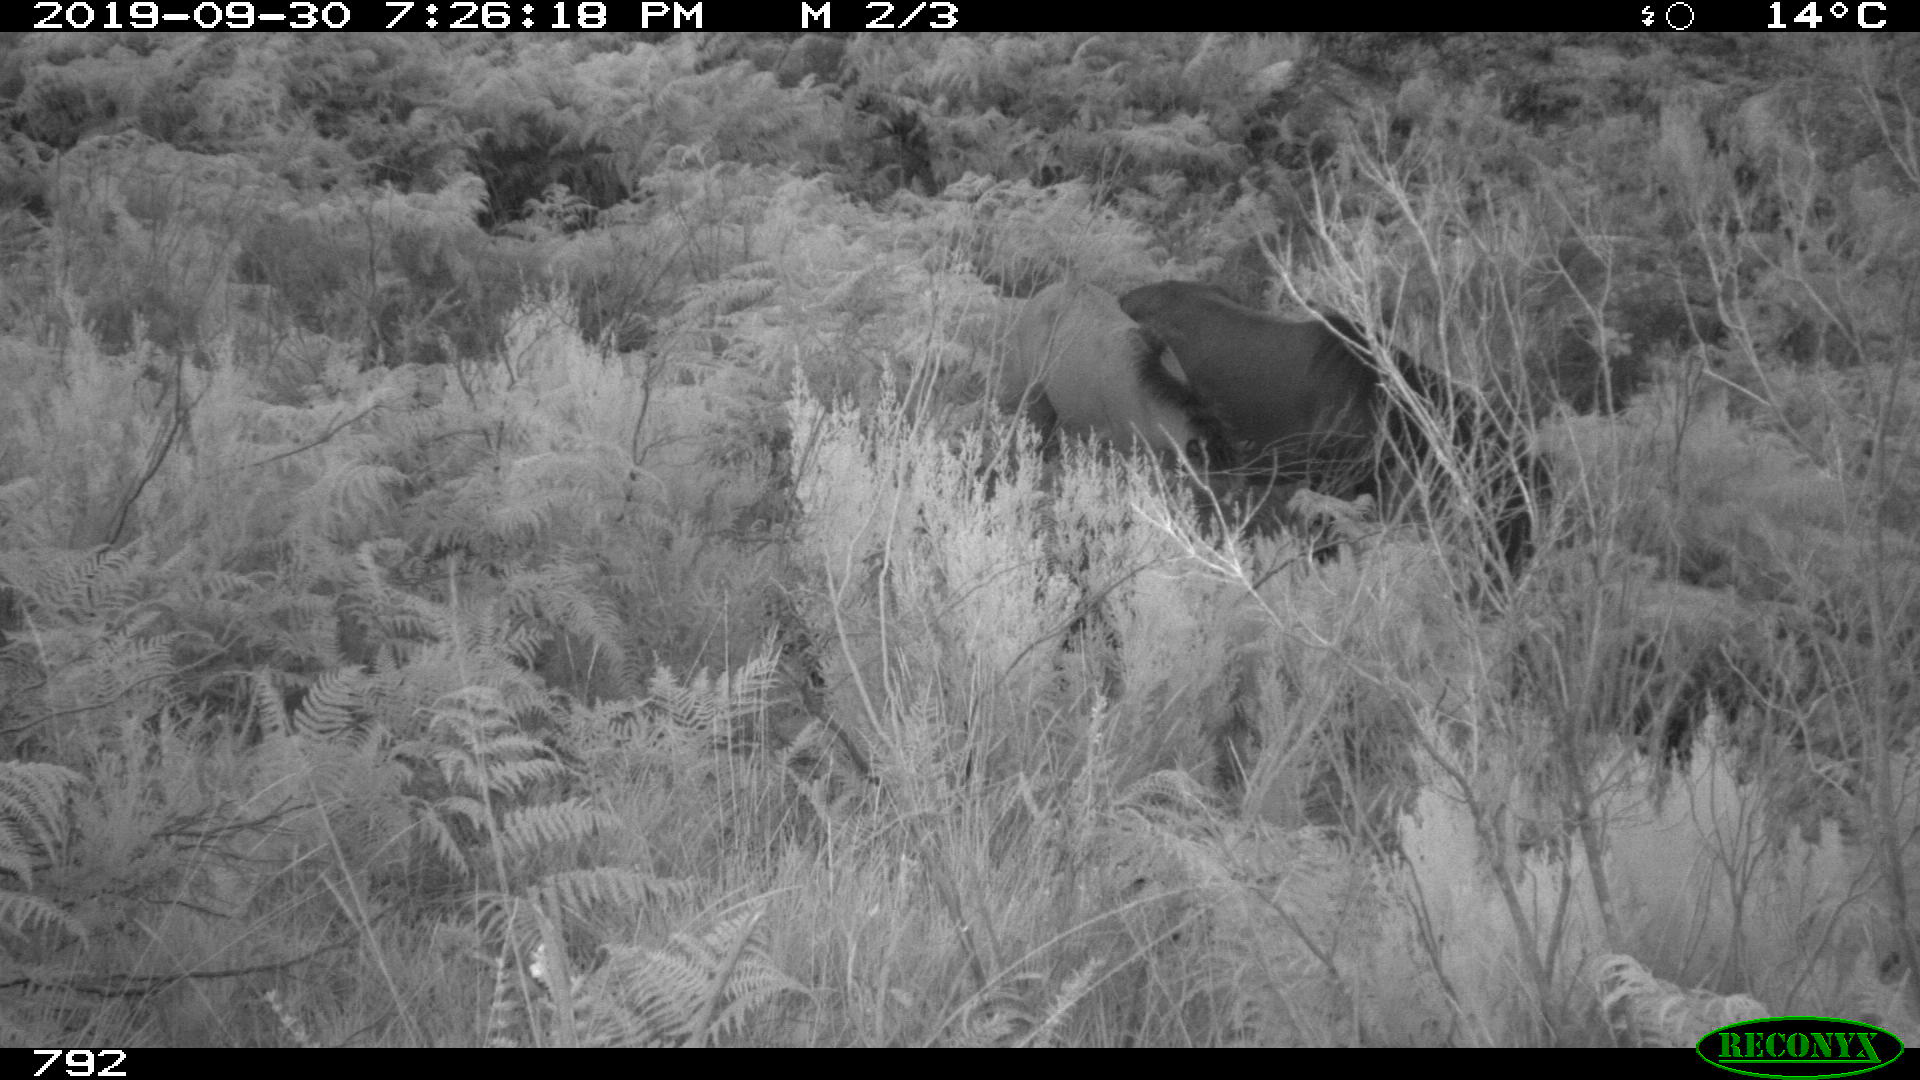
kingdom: Animalia
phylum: Chordata
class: Mammalia
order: Perissodactyla
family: Equidae
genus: Equus
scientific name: Equus caballus
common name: Horse
